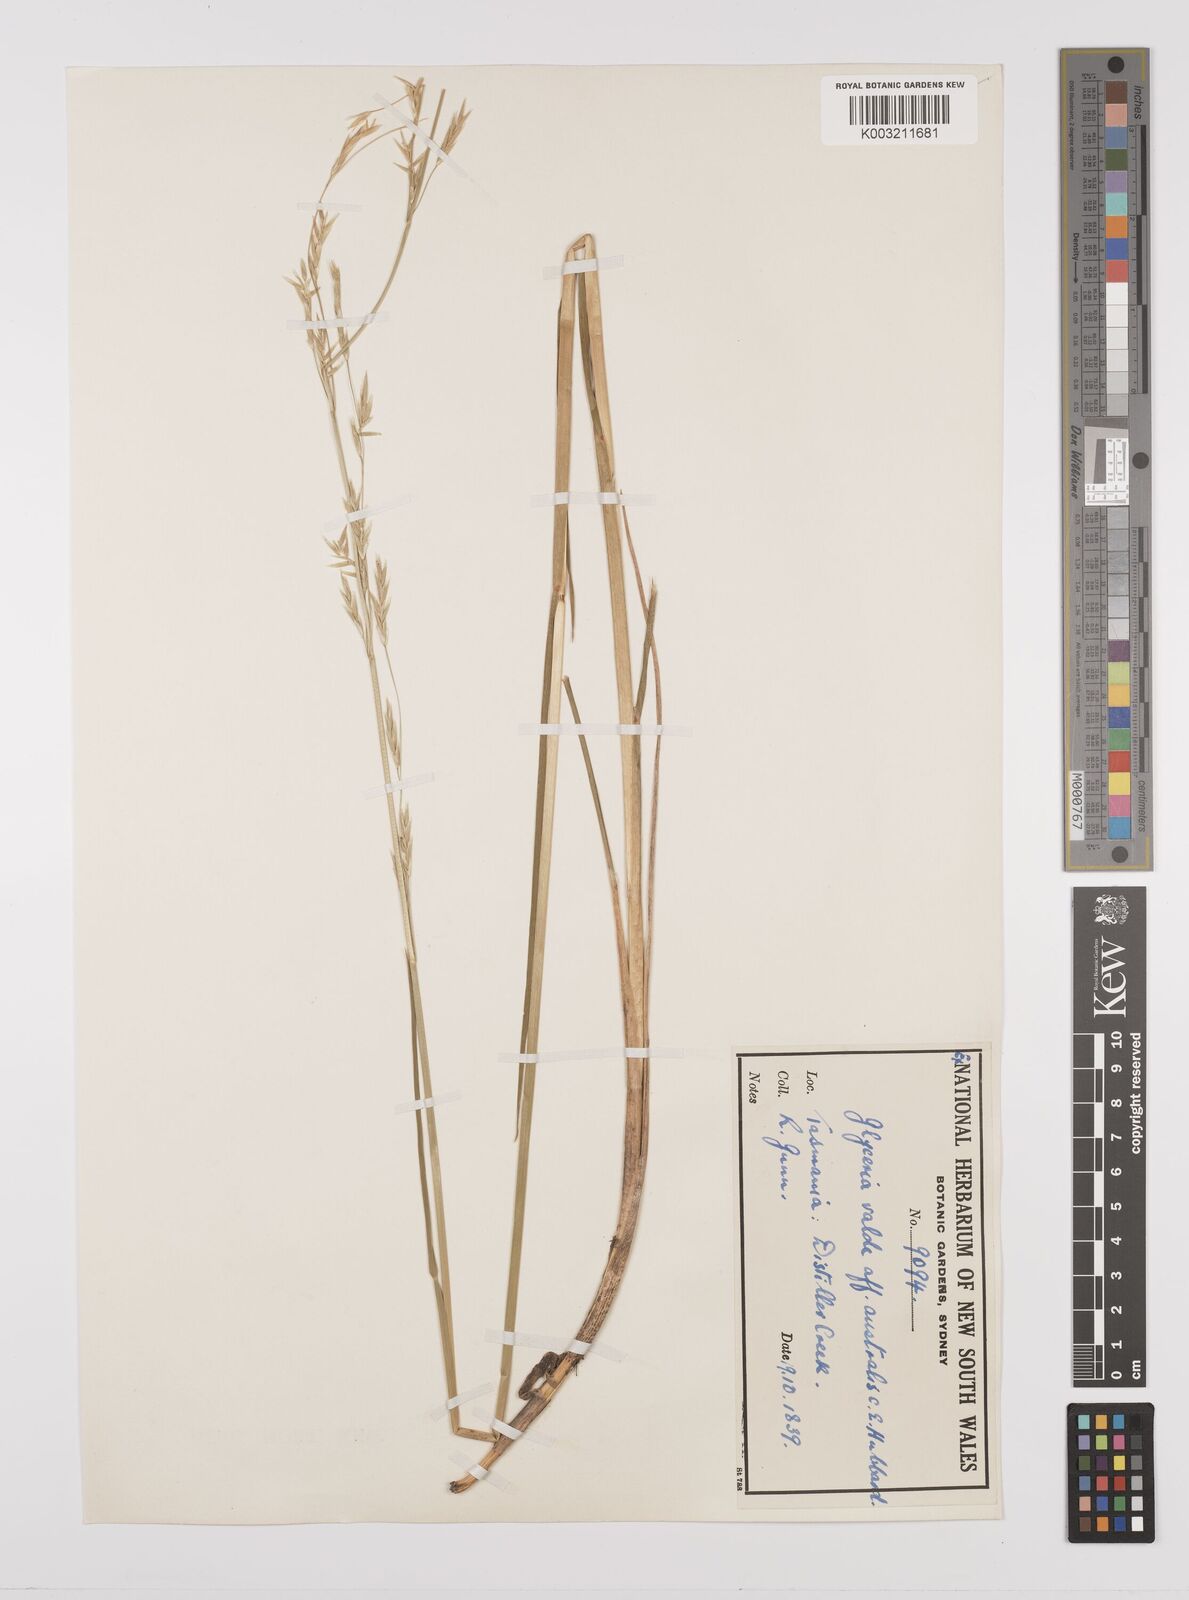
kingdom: Plantae
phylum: Tracheophyta
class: Liliopsida
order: Poales
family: Poaceae
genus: Glyceria
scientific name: Glyceria australis
